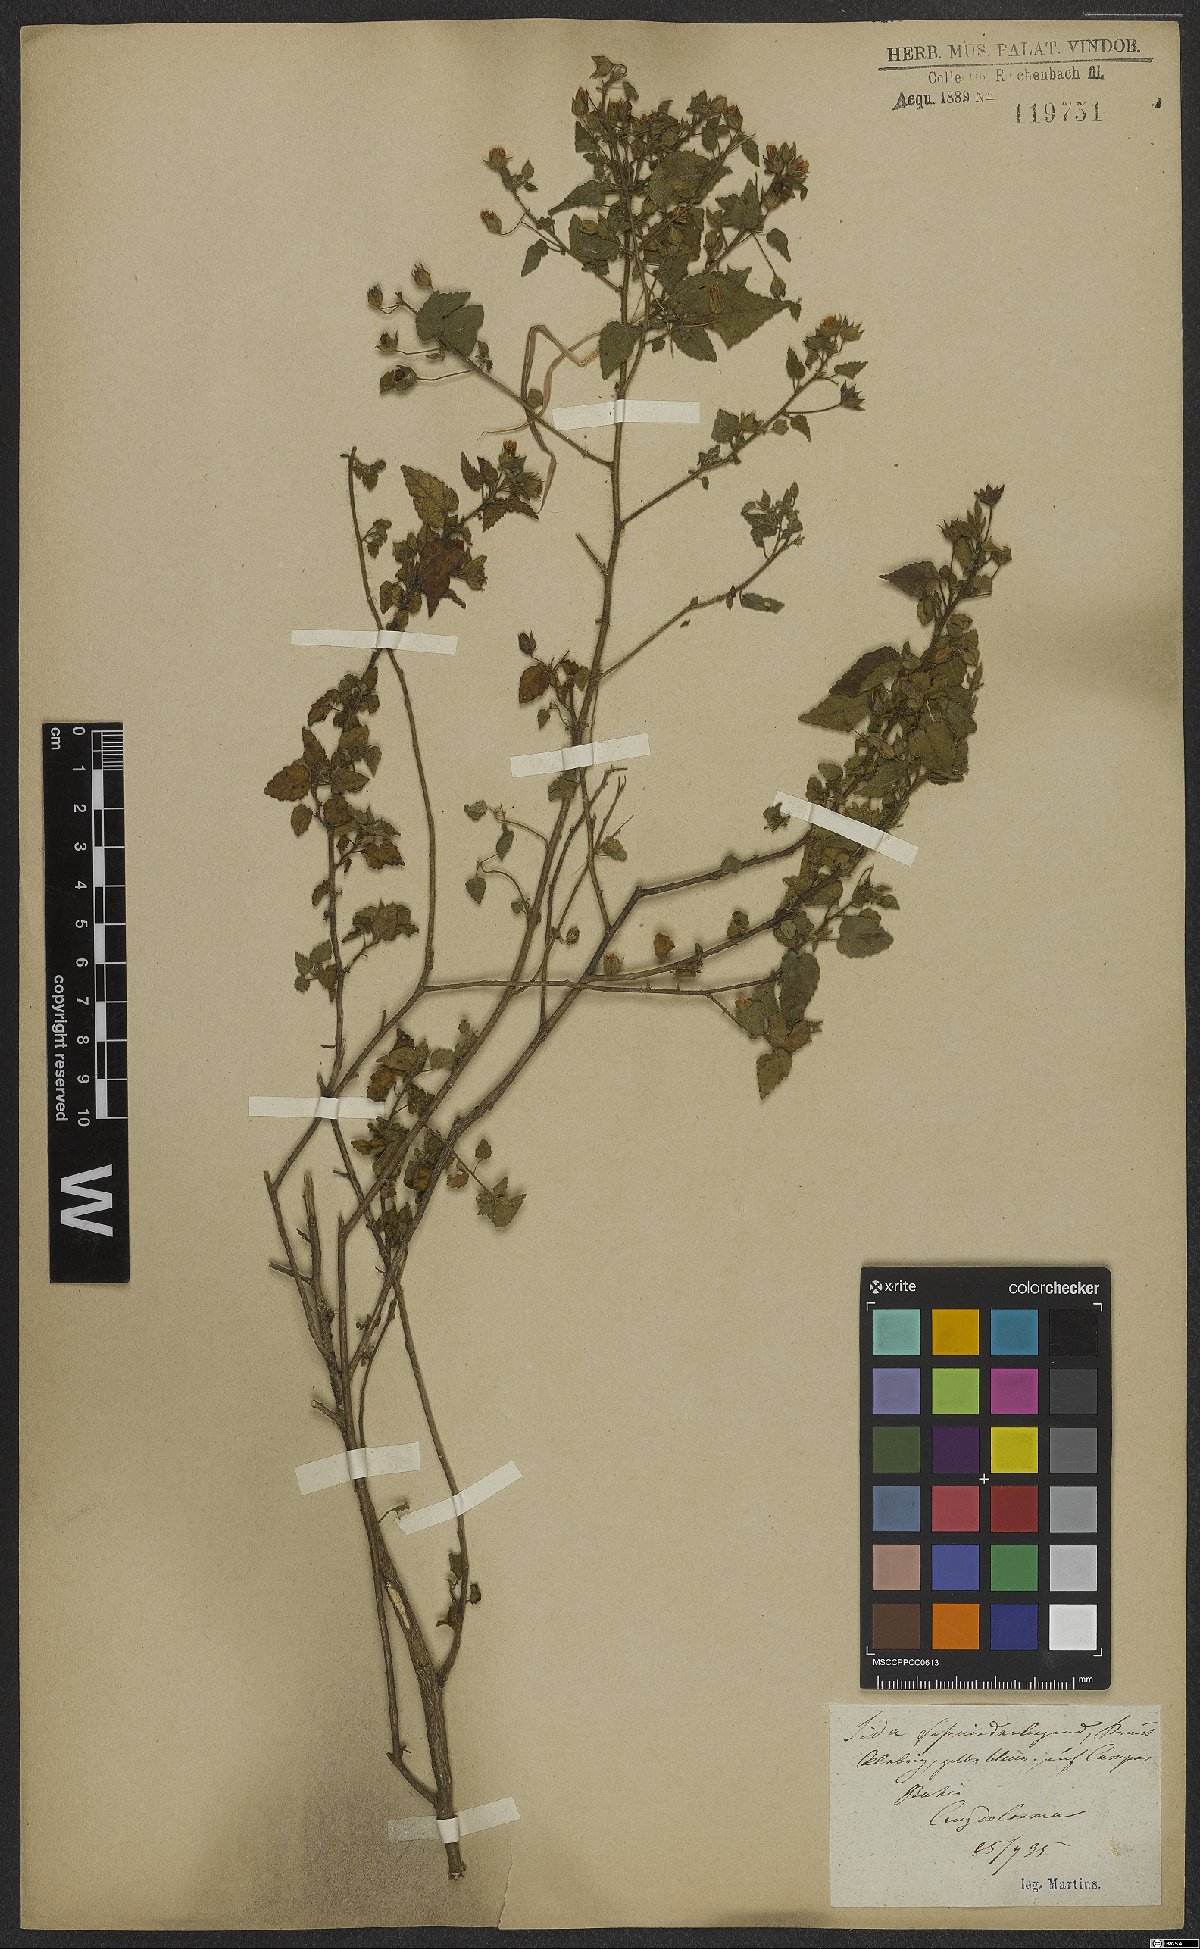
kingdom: Plantae
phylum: Tracheophyta
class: Magnoliopsida
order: Malvales
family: Malvaceae
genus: Sida
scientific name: Sida
